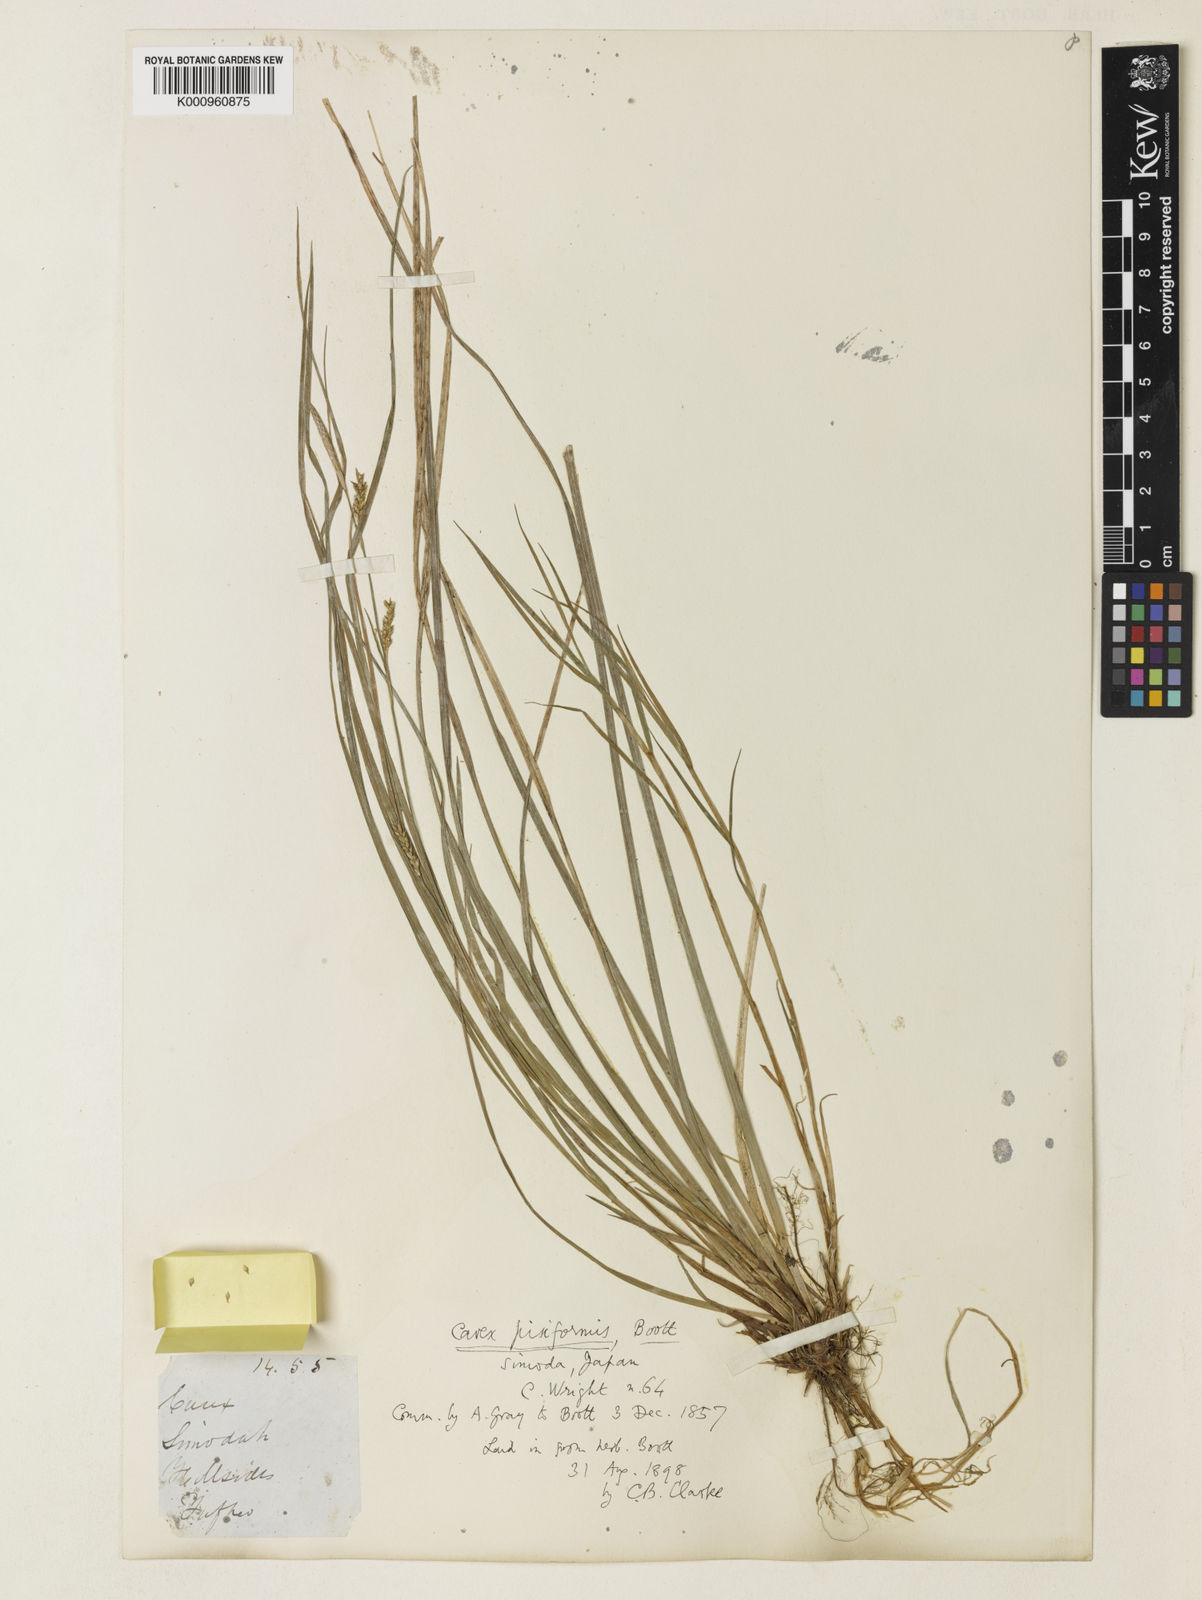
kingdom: Plantae
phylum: Tracheophyta
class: Liliopsida
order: Poales
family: Cyperaceae
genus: Carex
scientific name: Carex pisiformis
